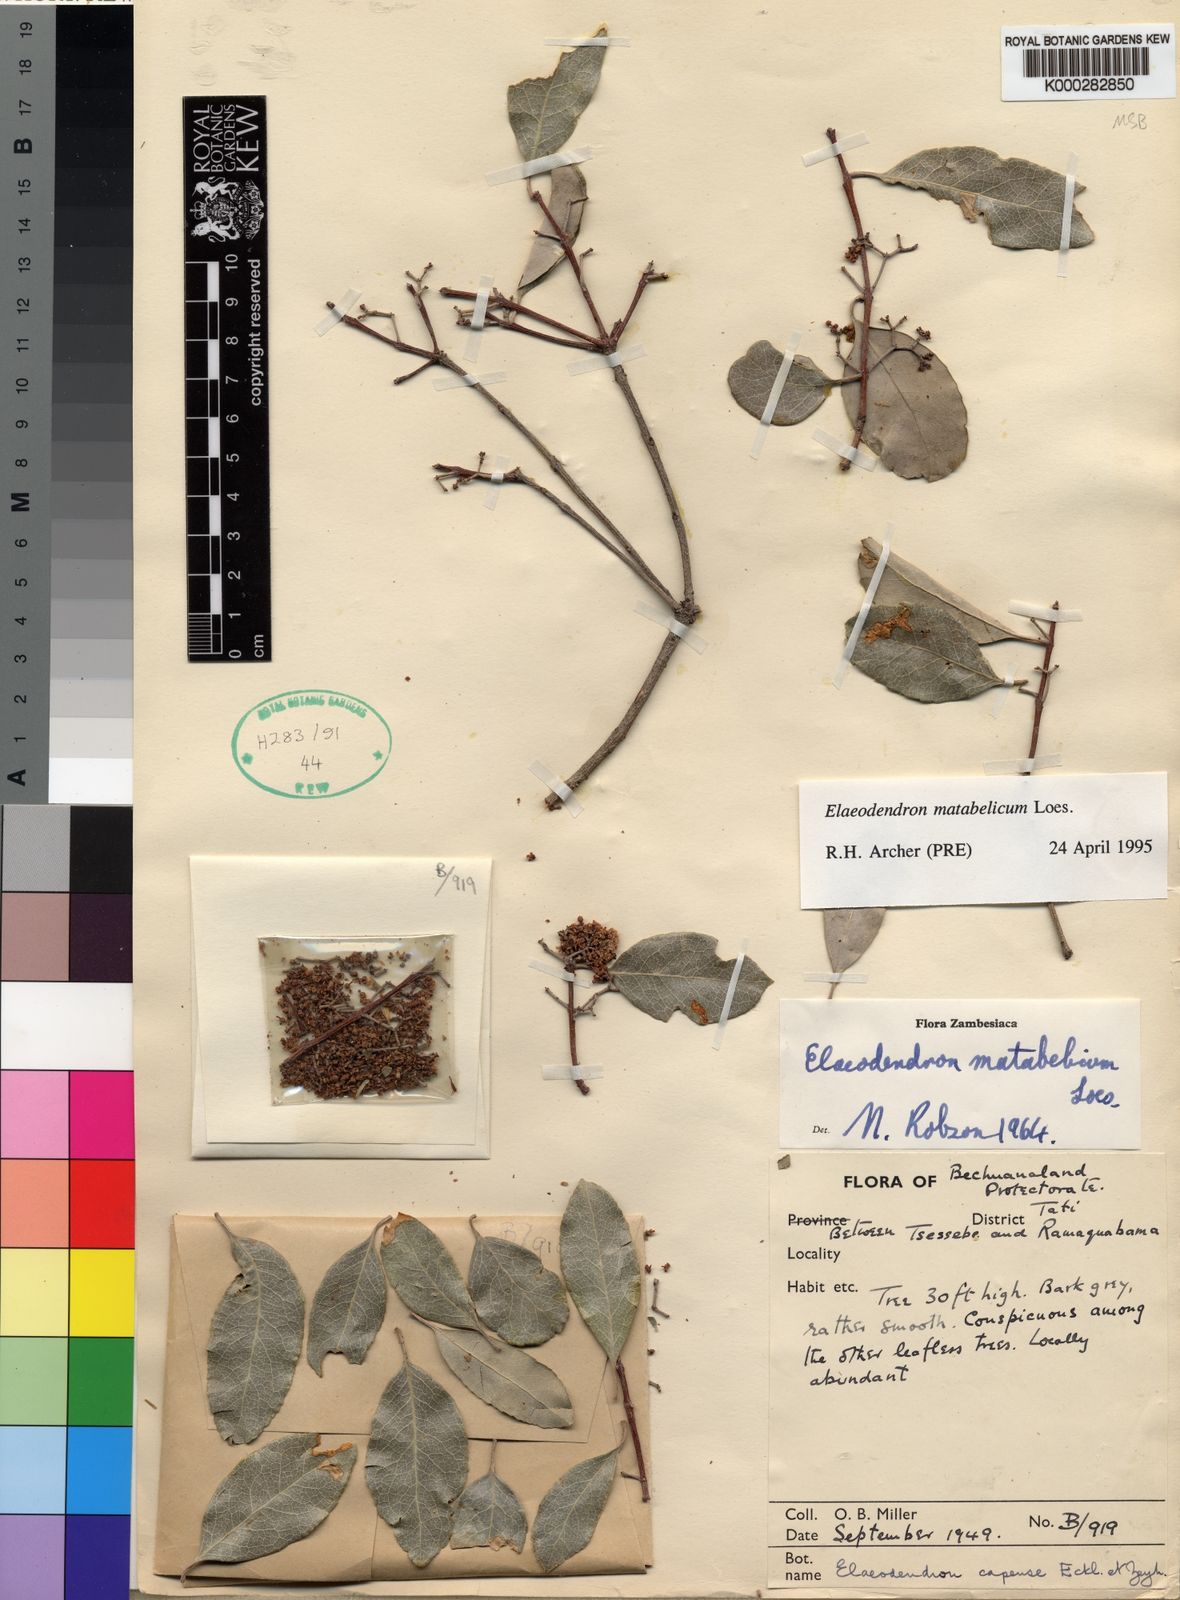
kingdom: Plantae
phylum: Tracheophyta
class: Magnoliopsida
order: Celastrales
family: Celastraceae
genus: Elaeodendron
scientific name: Elaeodendron matabelicum
